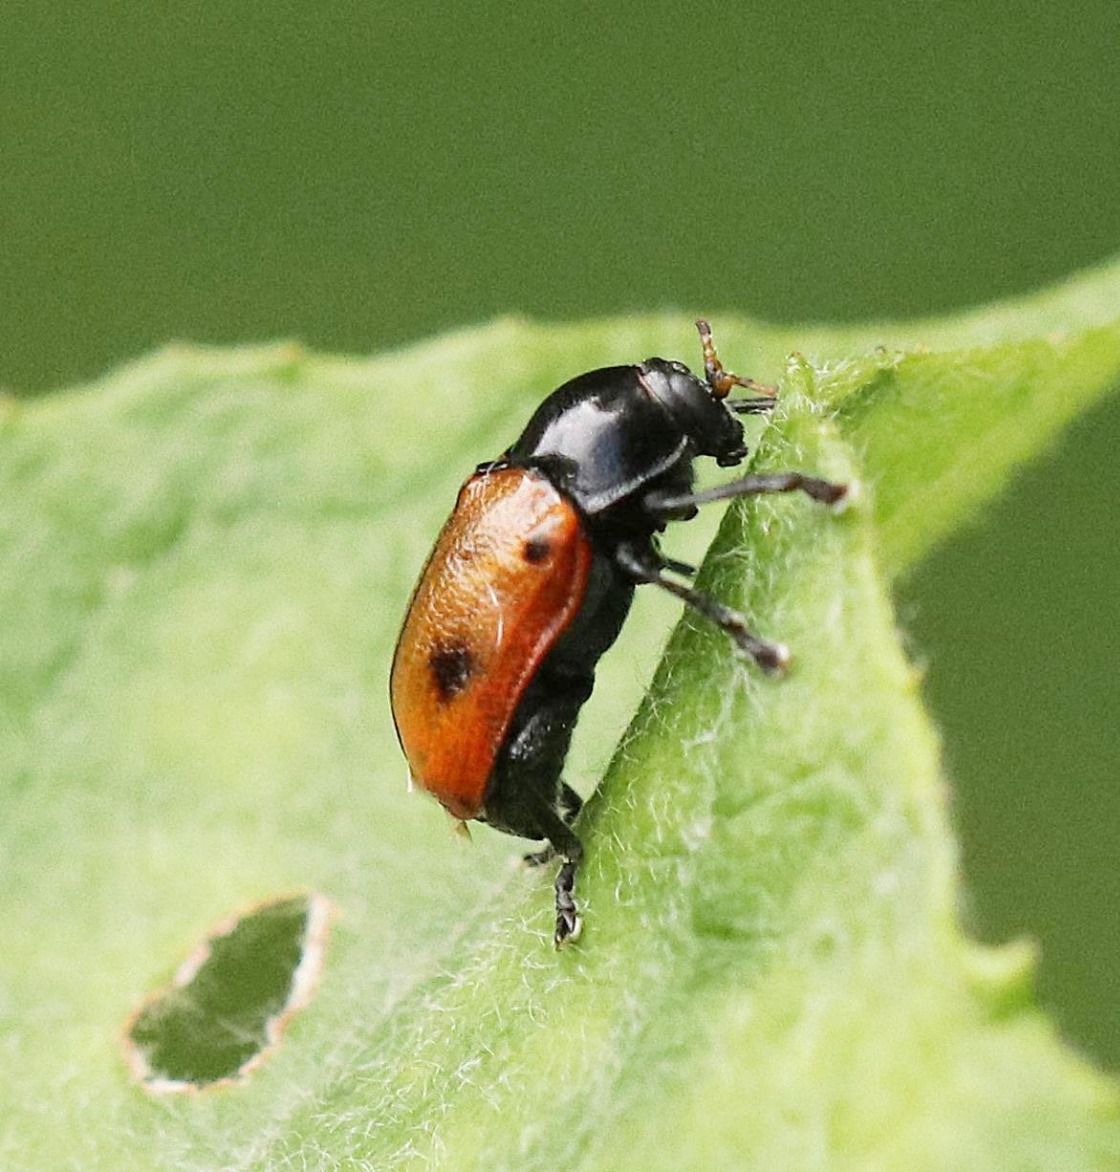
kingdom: Animalia
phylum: Arthropoda
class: Insecta
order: Coleoptera
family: Chrysomelidae
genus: Cryptocephalus
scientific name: Cryptocephalus coryli
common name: Hasselfaldbille
